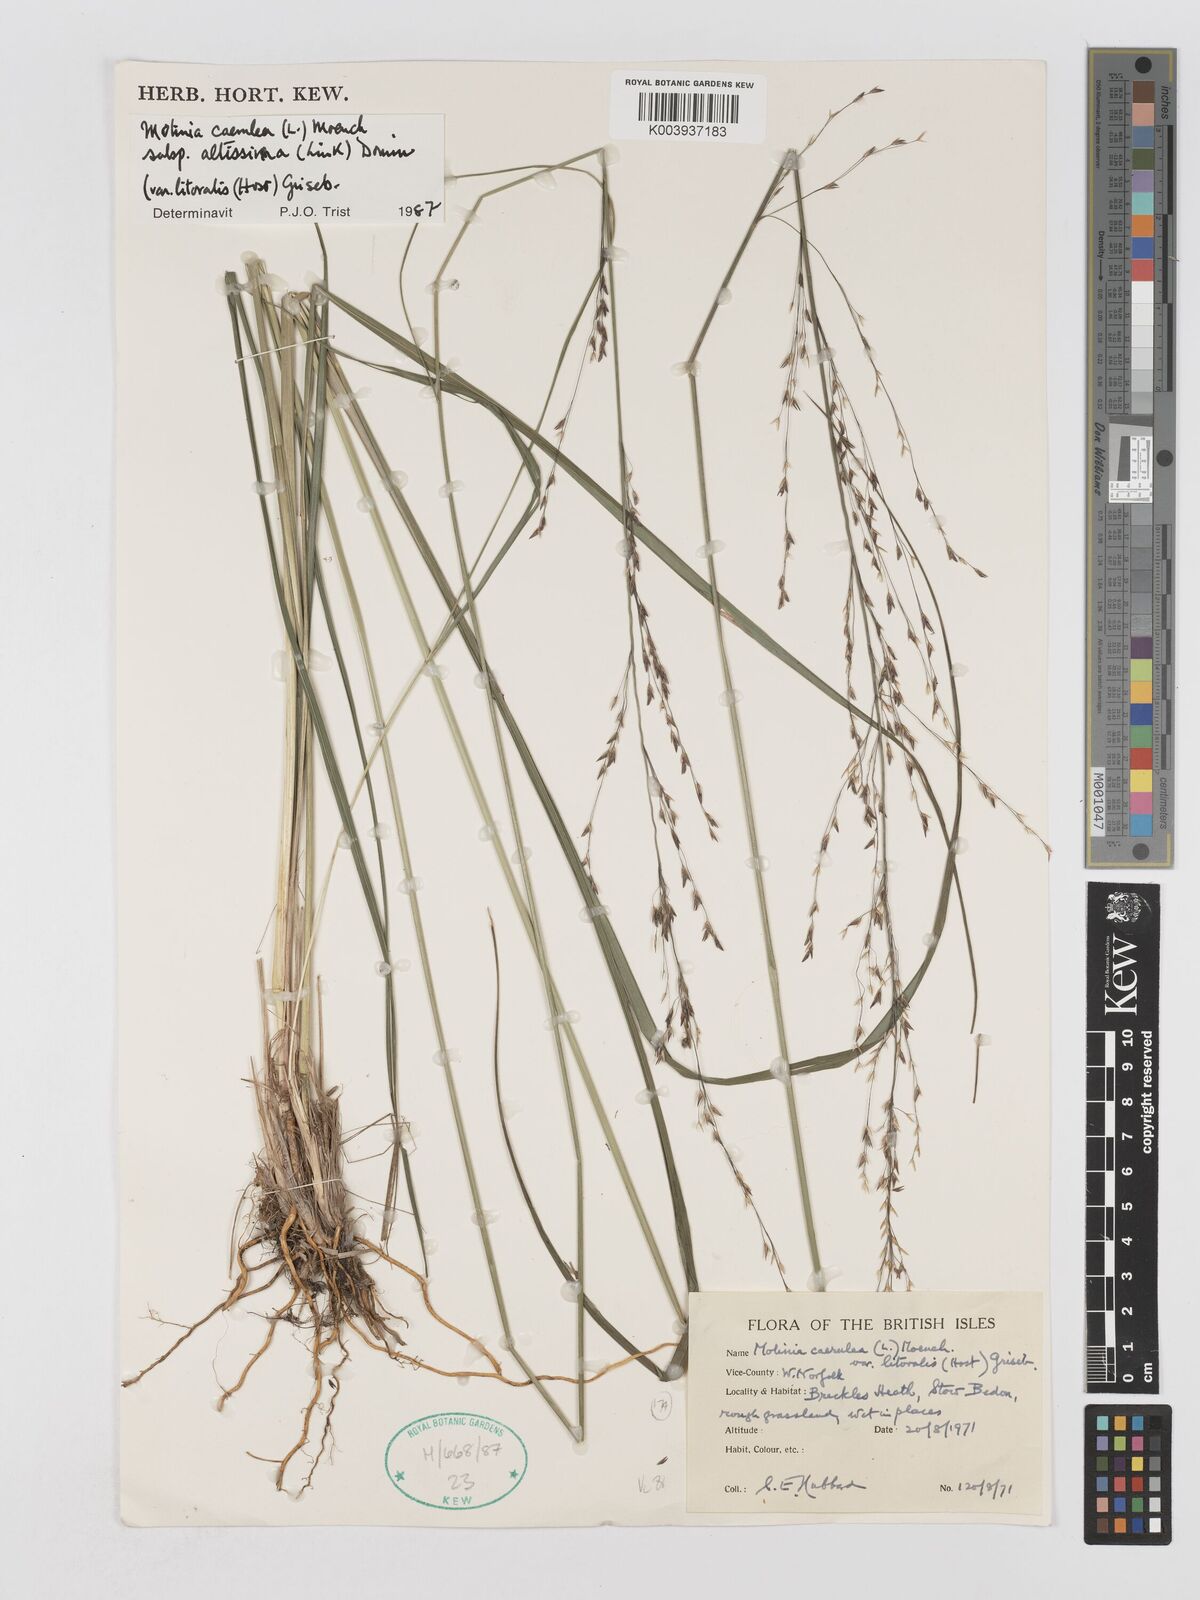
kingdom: Plantae
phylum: Tracheophyta
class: Liliopsida
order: Poales
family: Poaceae
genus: Molinia
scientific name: Molinia caerulea
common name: Purple moor-grass
